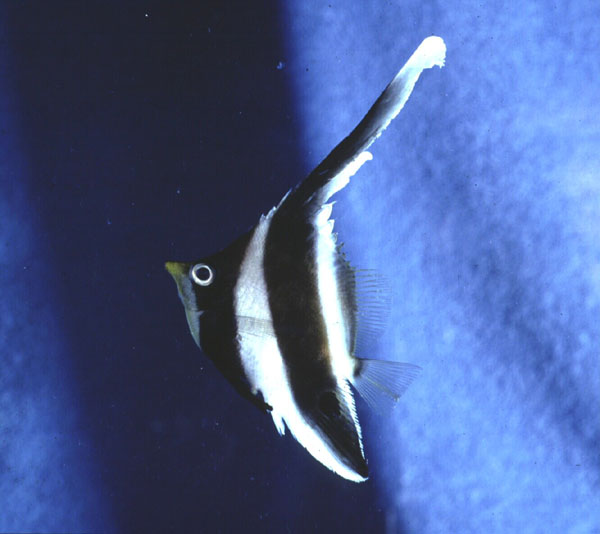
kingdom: Animalia
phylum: Chordata
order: Perciformes
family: Chaetodontidae
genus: Heniochus
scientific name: Heniochus chrysostomus
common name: Horned bannerfish
